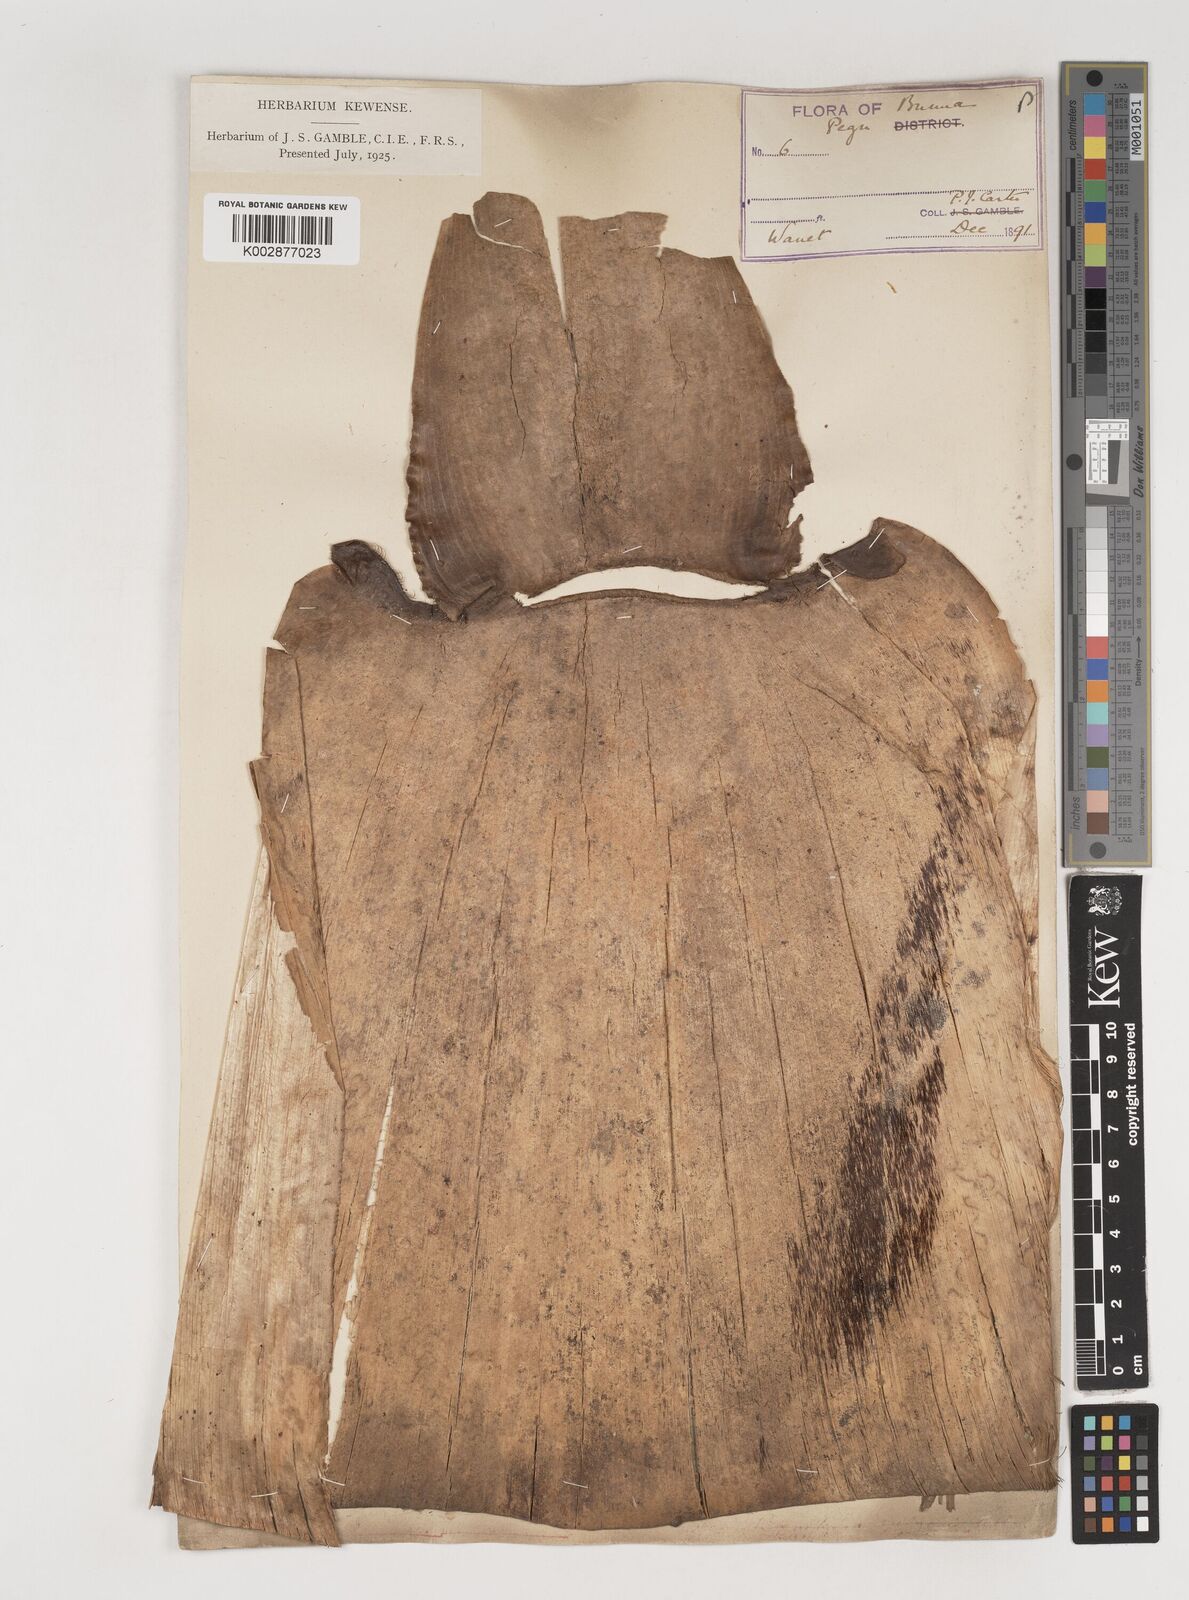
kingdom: Plantae
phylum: Tracheophyta
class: Liliopsida
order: Poales
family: Poaceae
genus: Bambusa
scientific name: Bambusa vulgaris
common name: Common bamboo
